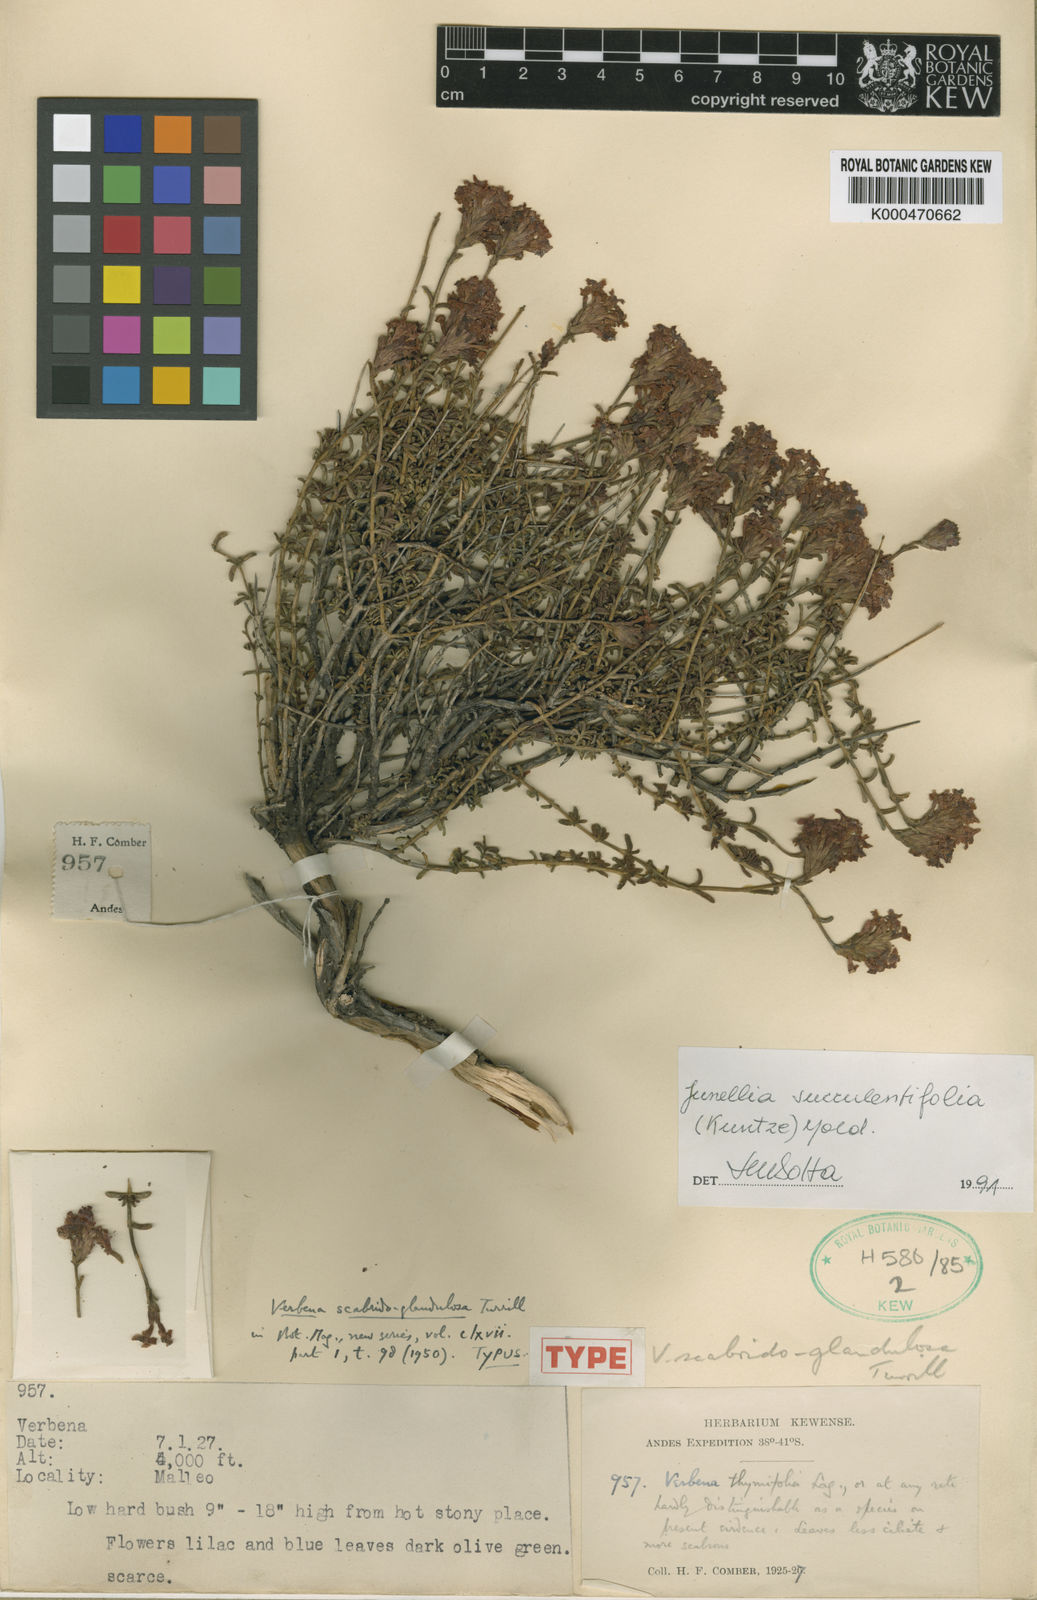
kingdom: Plantae
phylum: Tracheophyta
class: Magnoliopsida
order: Lamiales
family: Verbenaceae
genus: Junellia
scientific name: Junellia succulentifolia
